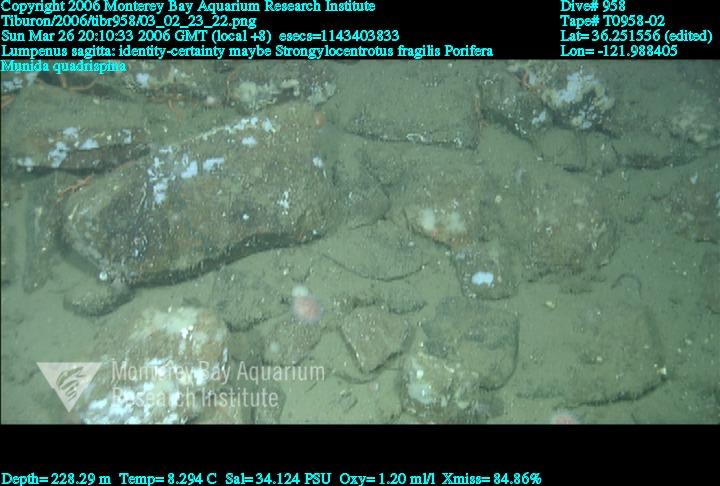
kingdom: Animalia
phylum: Porifera
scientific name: Porifera
